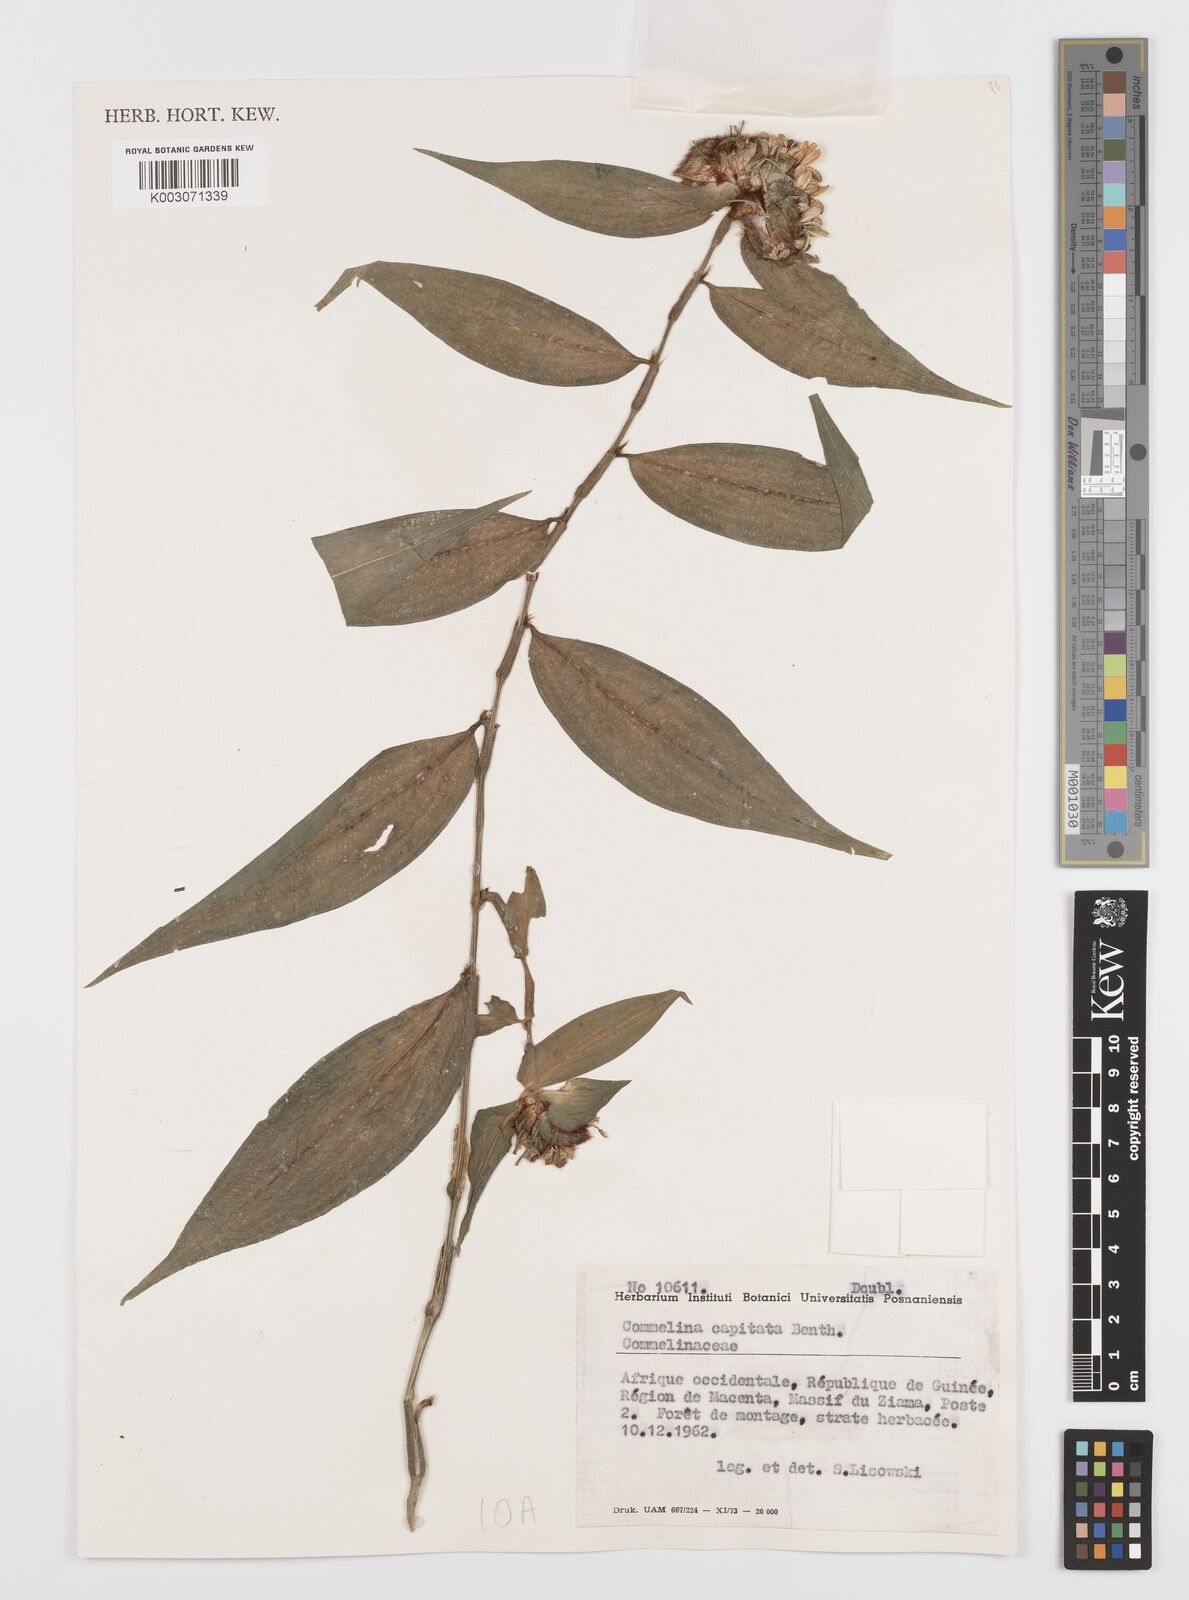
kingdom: Plantae
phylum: Tracheophyta
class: Liliopsida
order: Commelinales
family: Commelinaceae
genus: Commelina
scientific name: Commelina capitata
